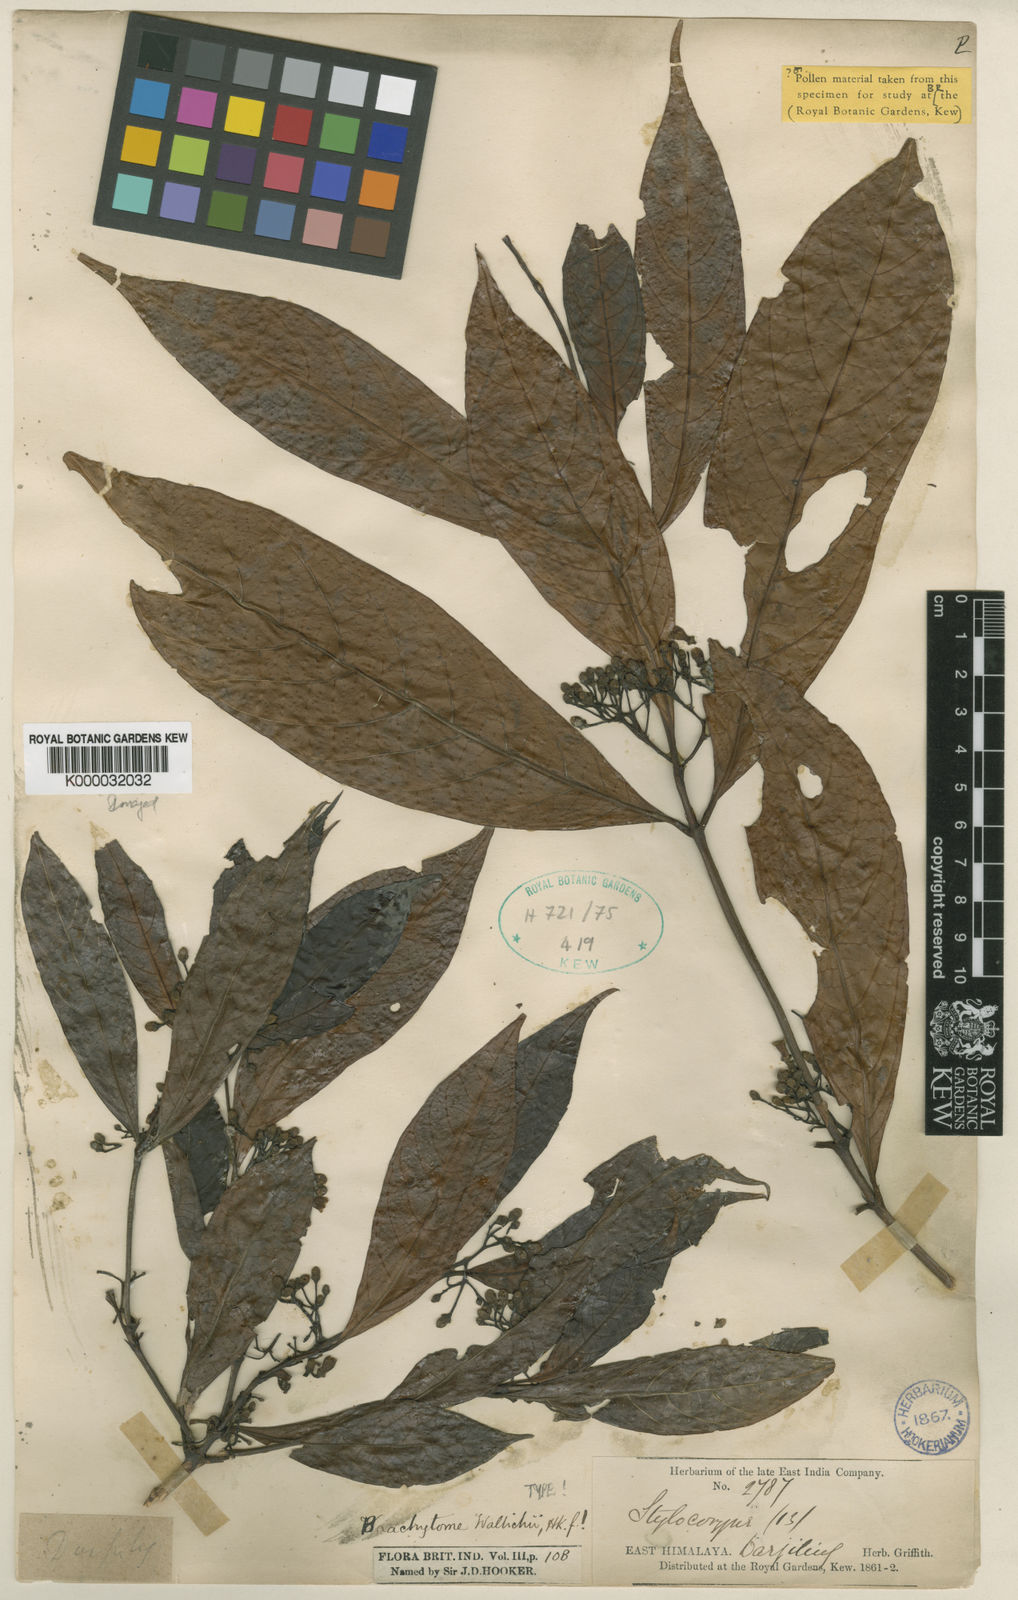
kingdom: Plantae
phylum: Tracheophyta
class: Magnoliopsida
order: Gentianales
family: Rubiaceae
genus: Brachytome
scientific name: Brachytome wallichii
